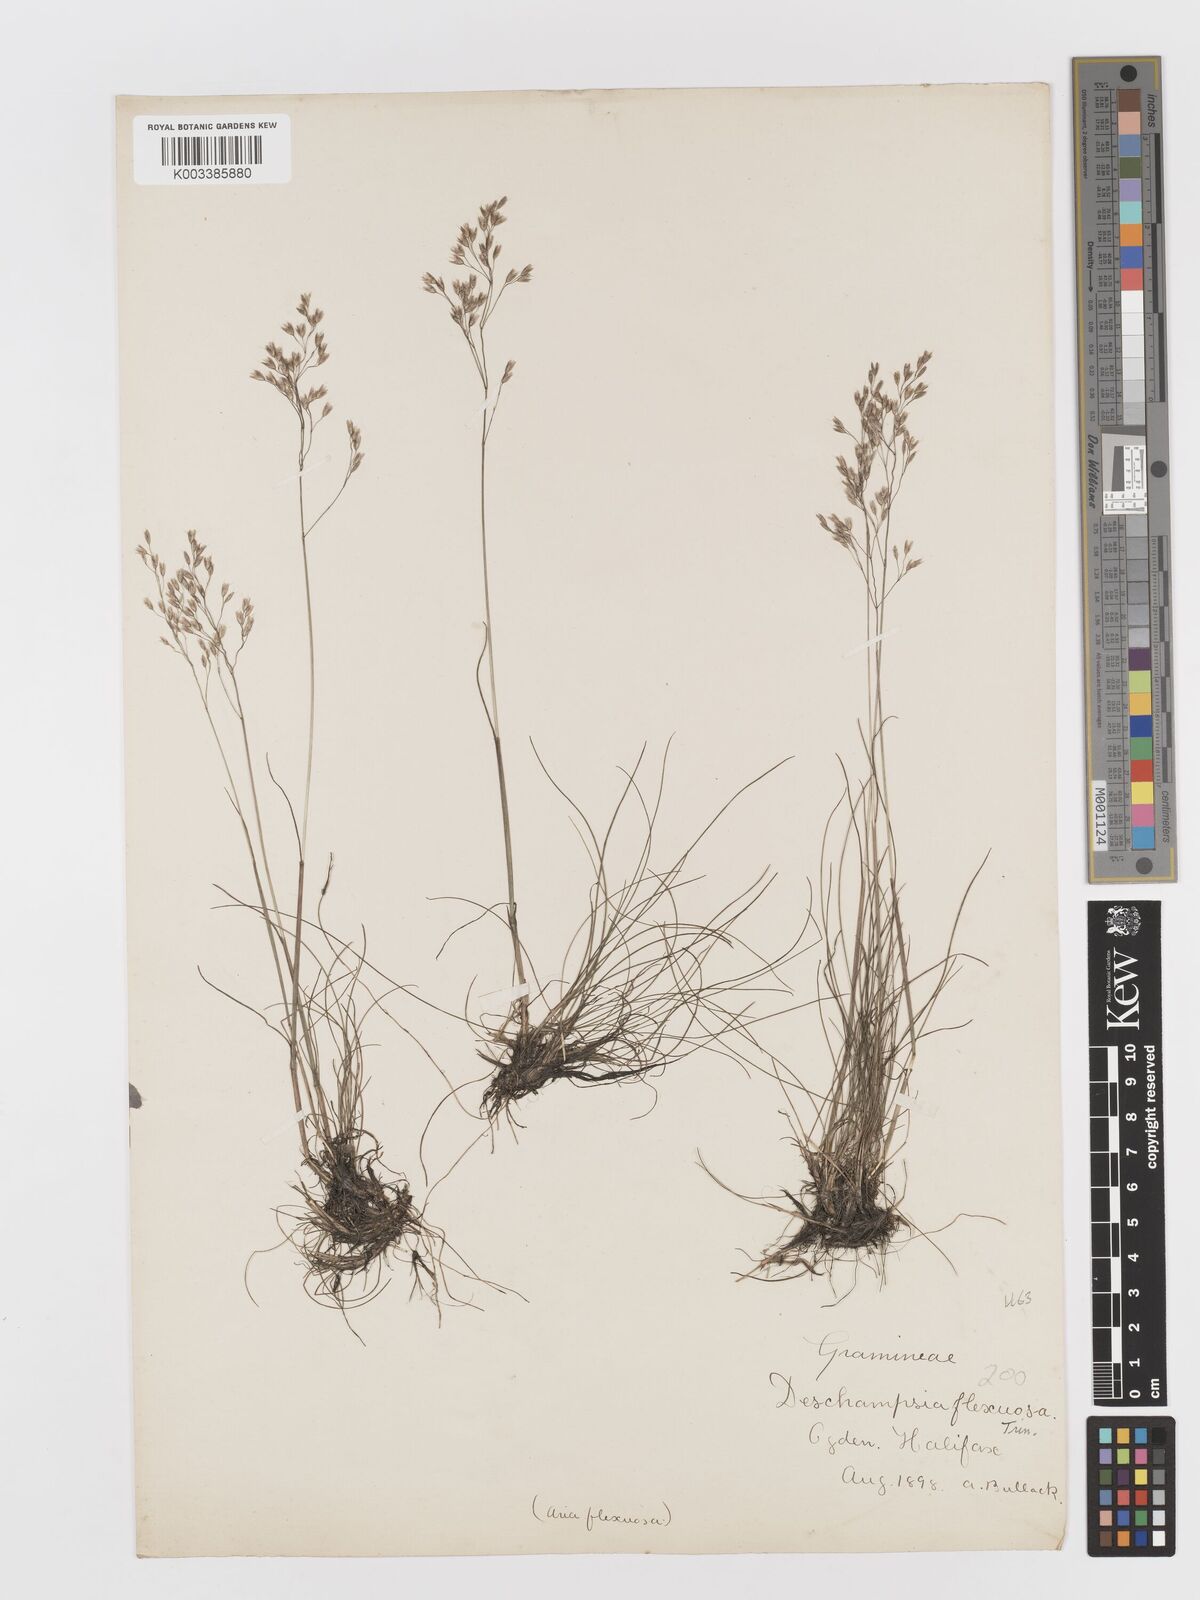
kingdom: Plantae
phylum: Tracheophyta
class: Liliopsida
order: Poales
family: Poaceae
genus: Avenella
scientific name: Avenella flexuosa
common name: Wavy hairgrass
